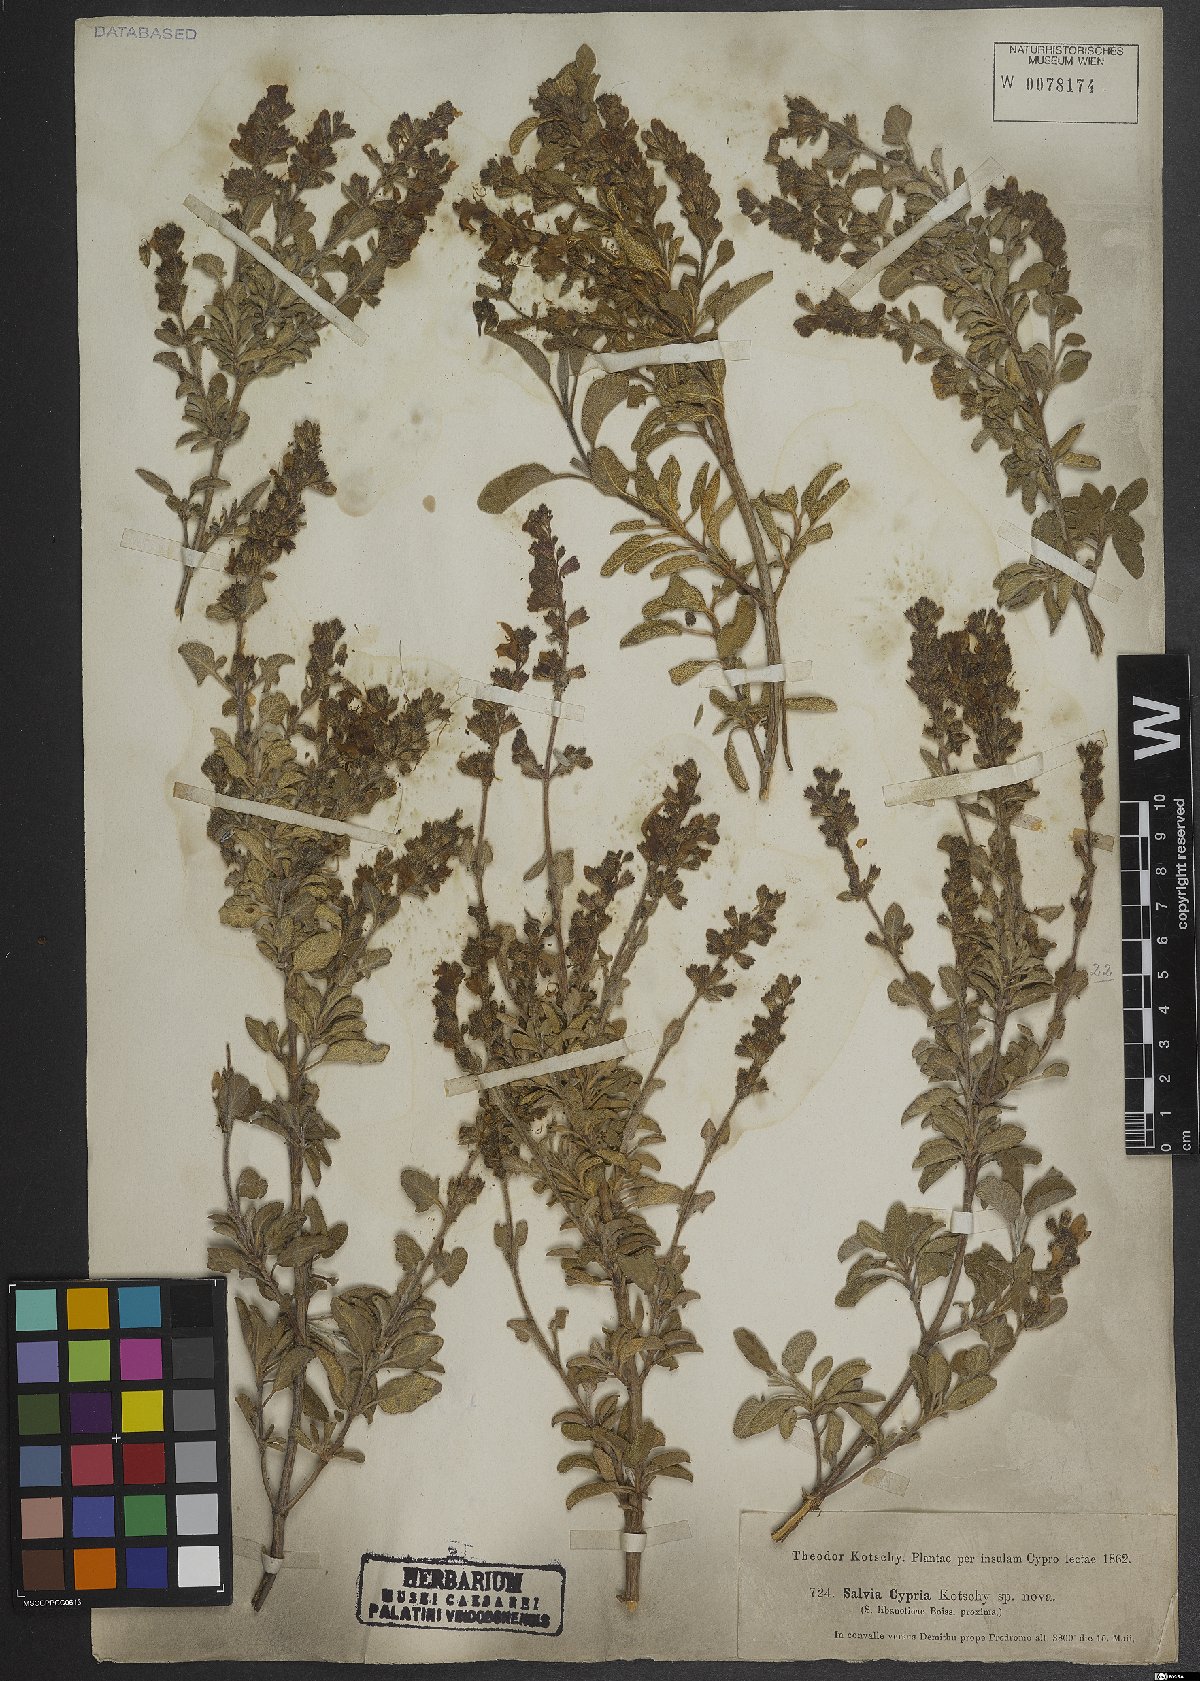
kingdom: Plantae
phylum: Tracheophyta
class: Magnoliopsida
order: Lamiales
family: Lamiaceae
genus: Salvia
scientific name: Salvia fruticosa
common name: Greek sage
